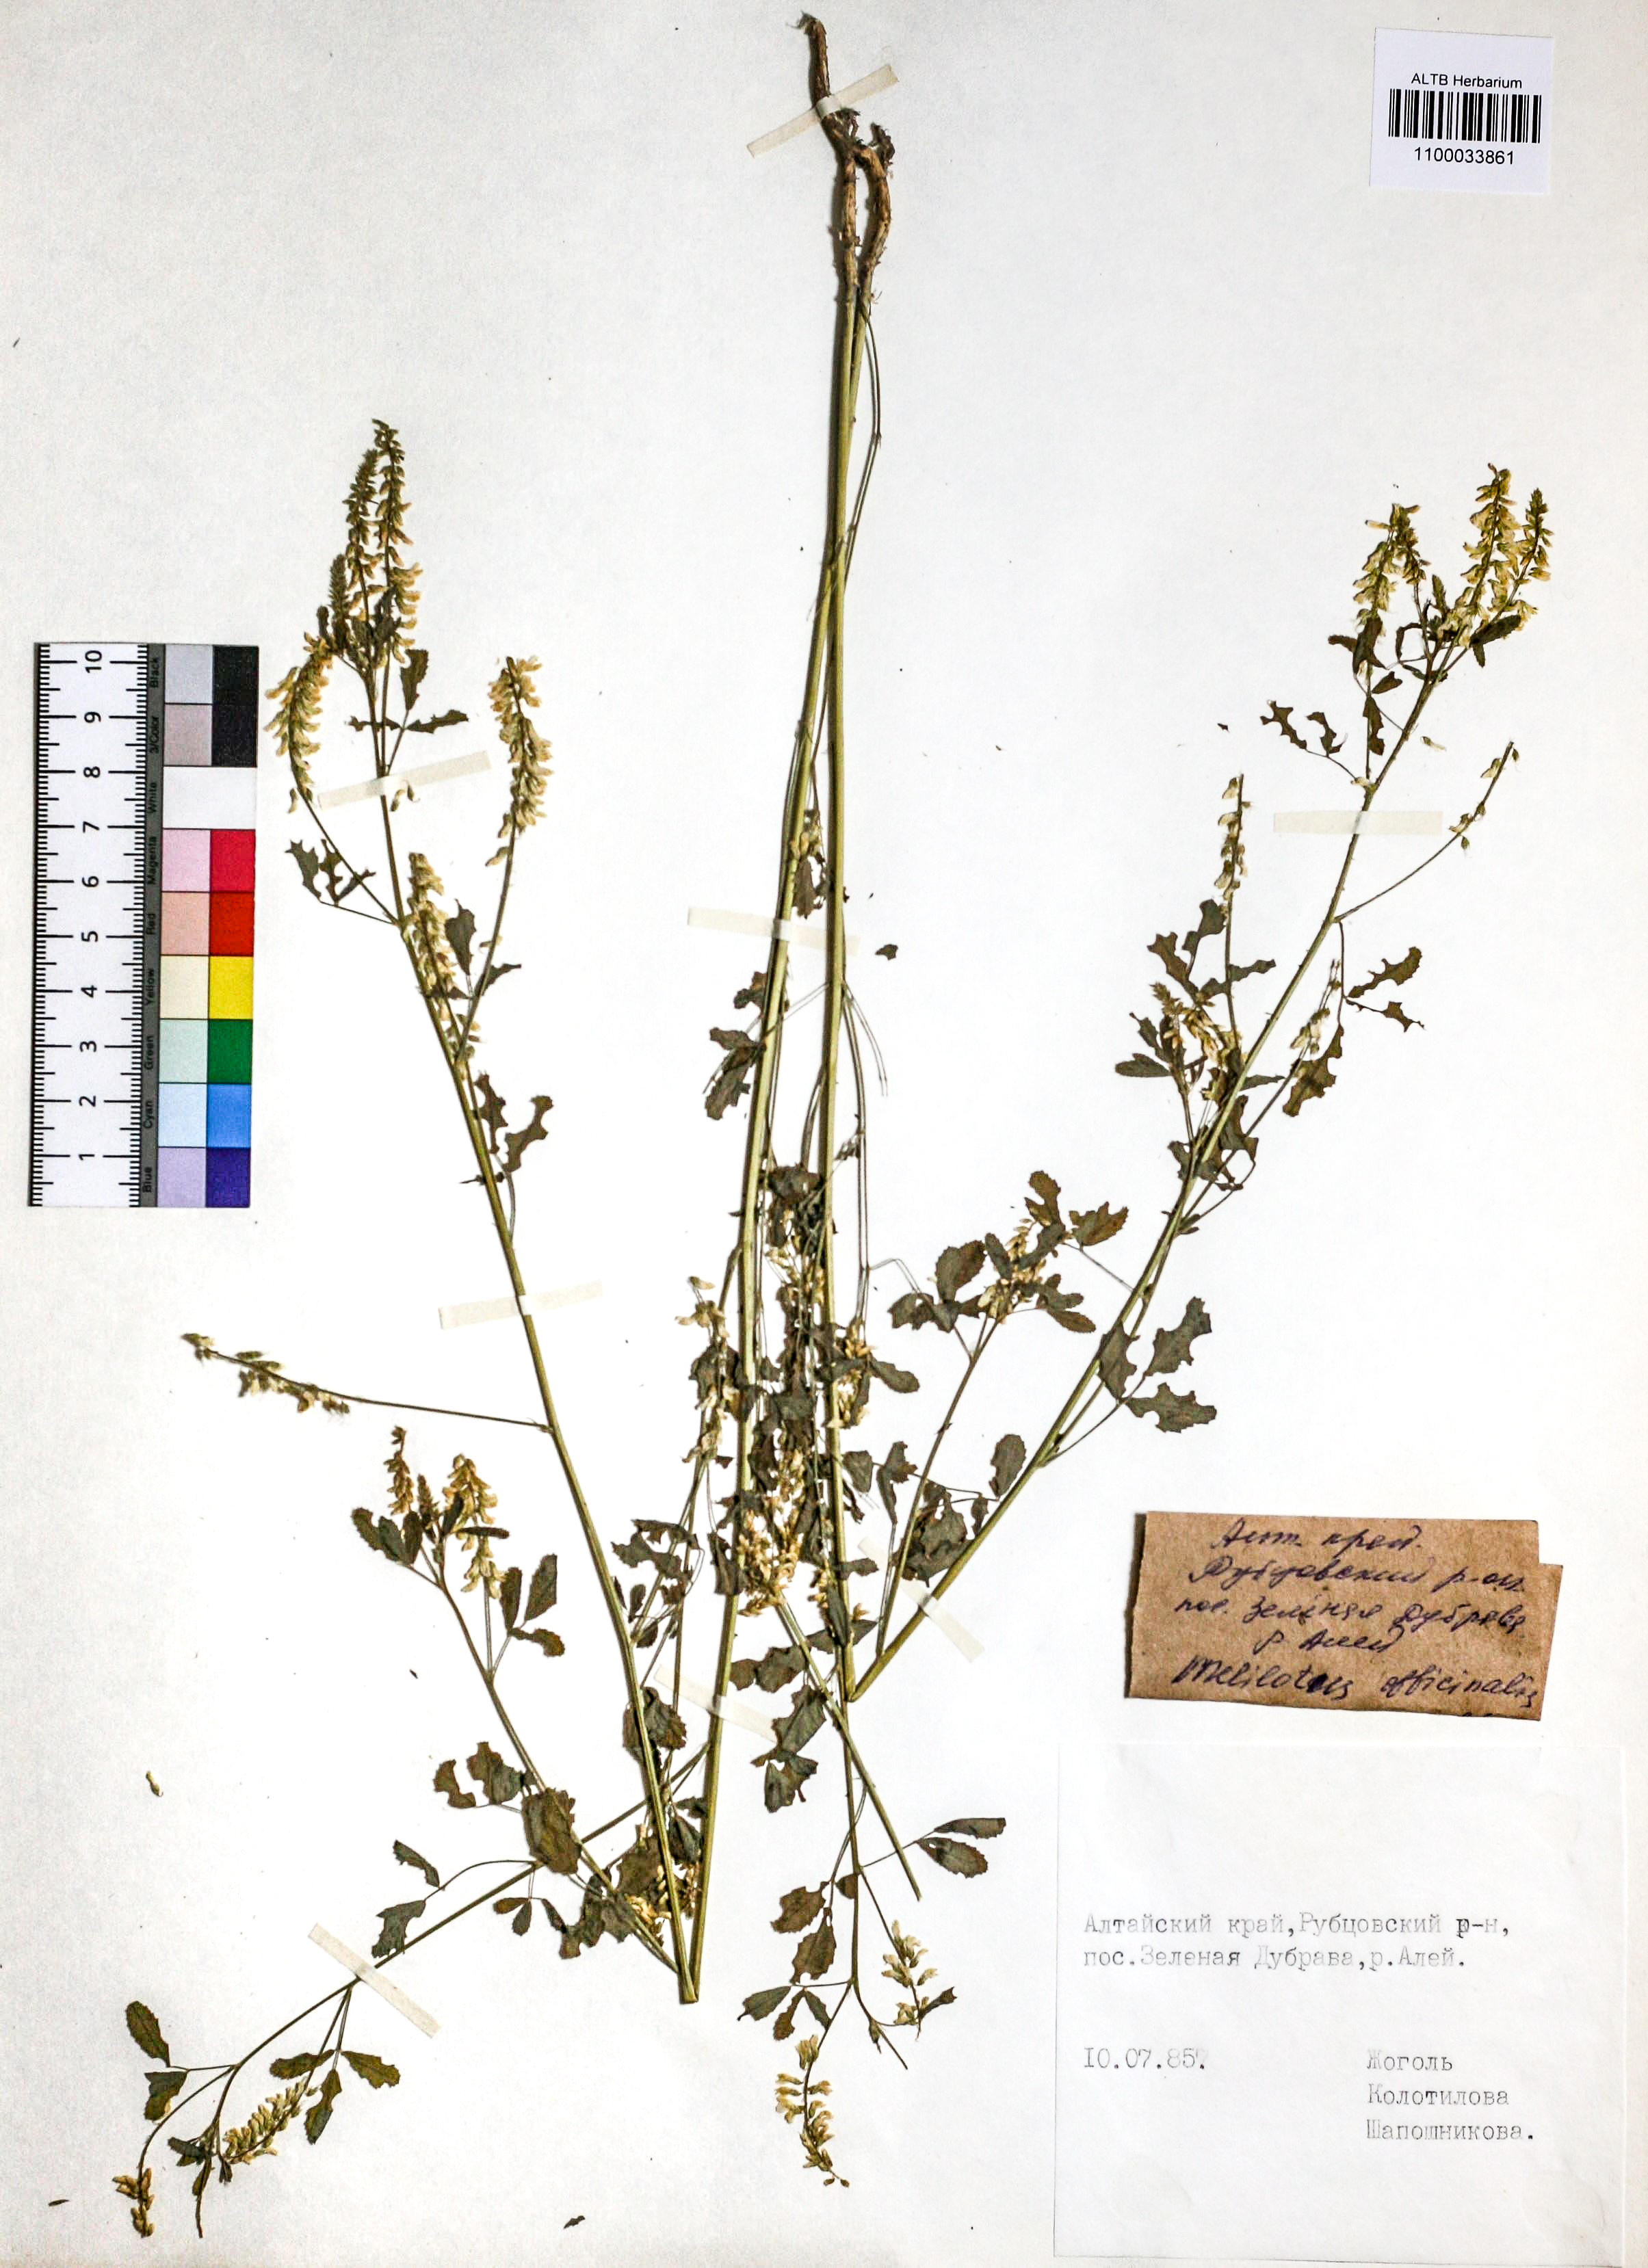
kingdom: Plantae
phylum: Tracheophyta
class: Magnoliopsida
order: Fabales
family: Fabaceae
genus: Melilotus
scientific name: Melilotus officinalis
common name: Sweetclover
